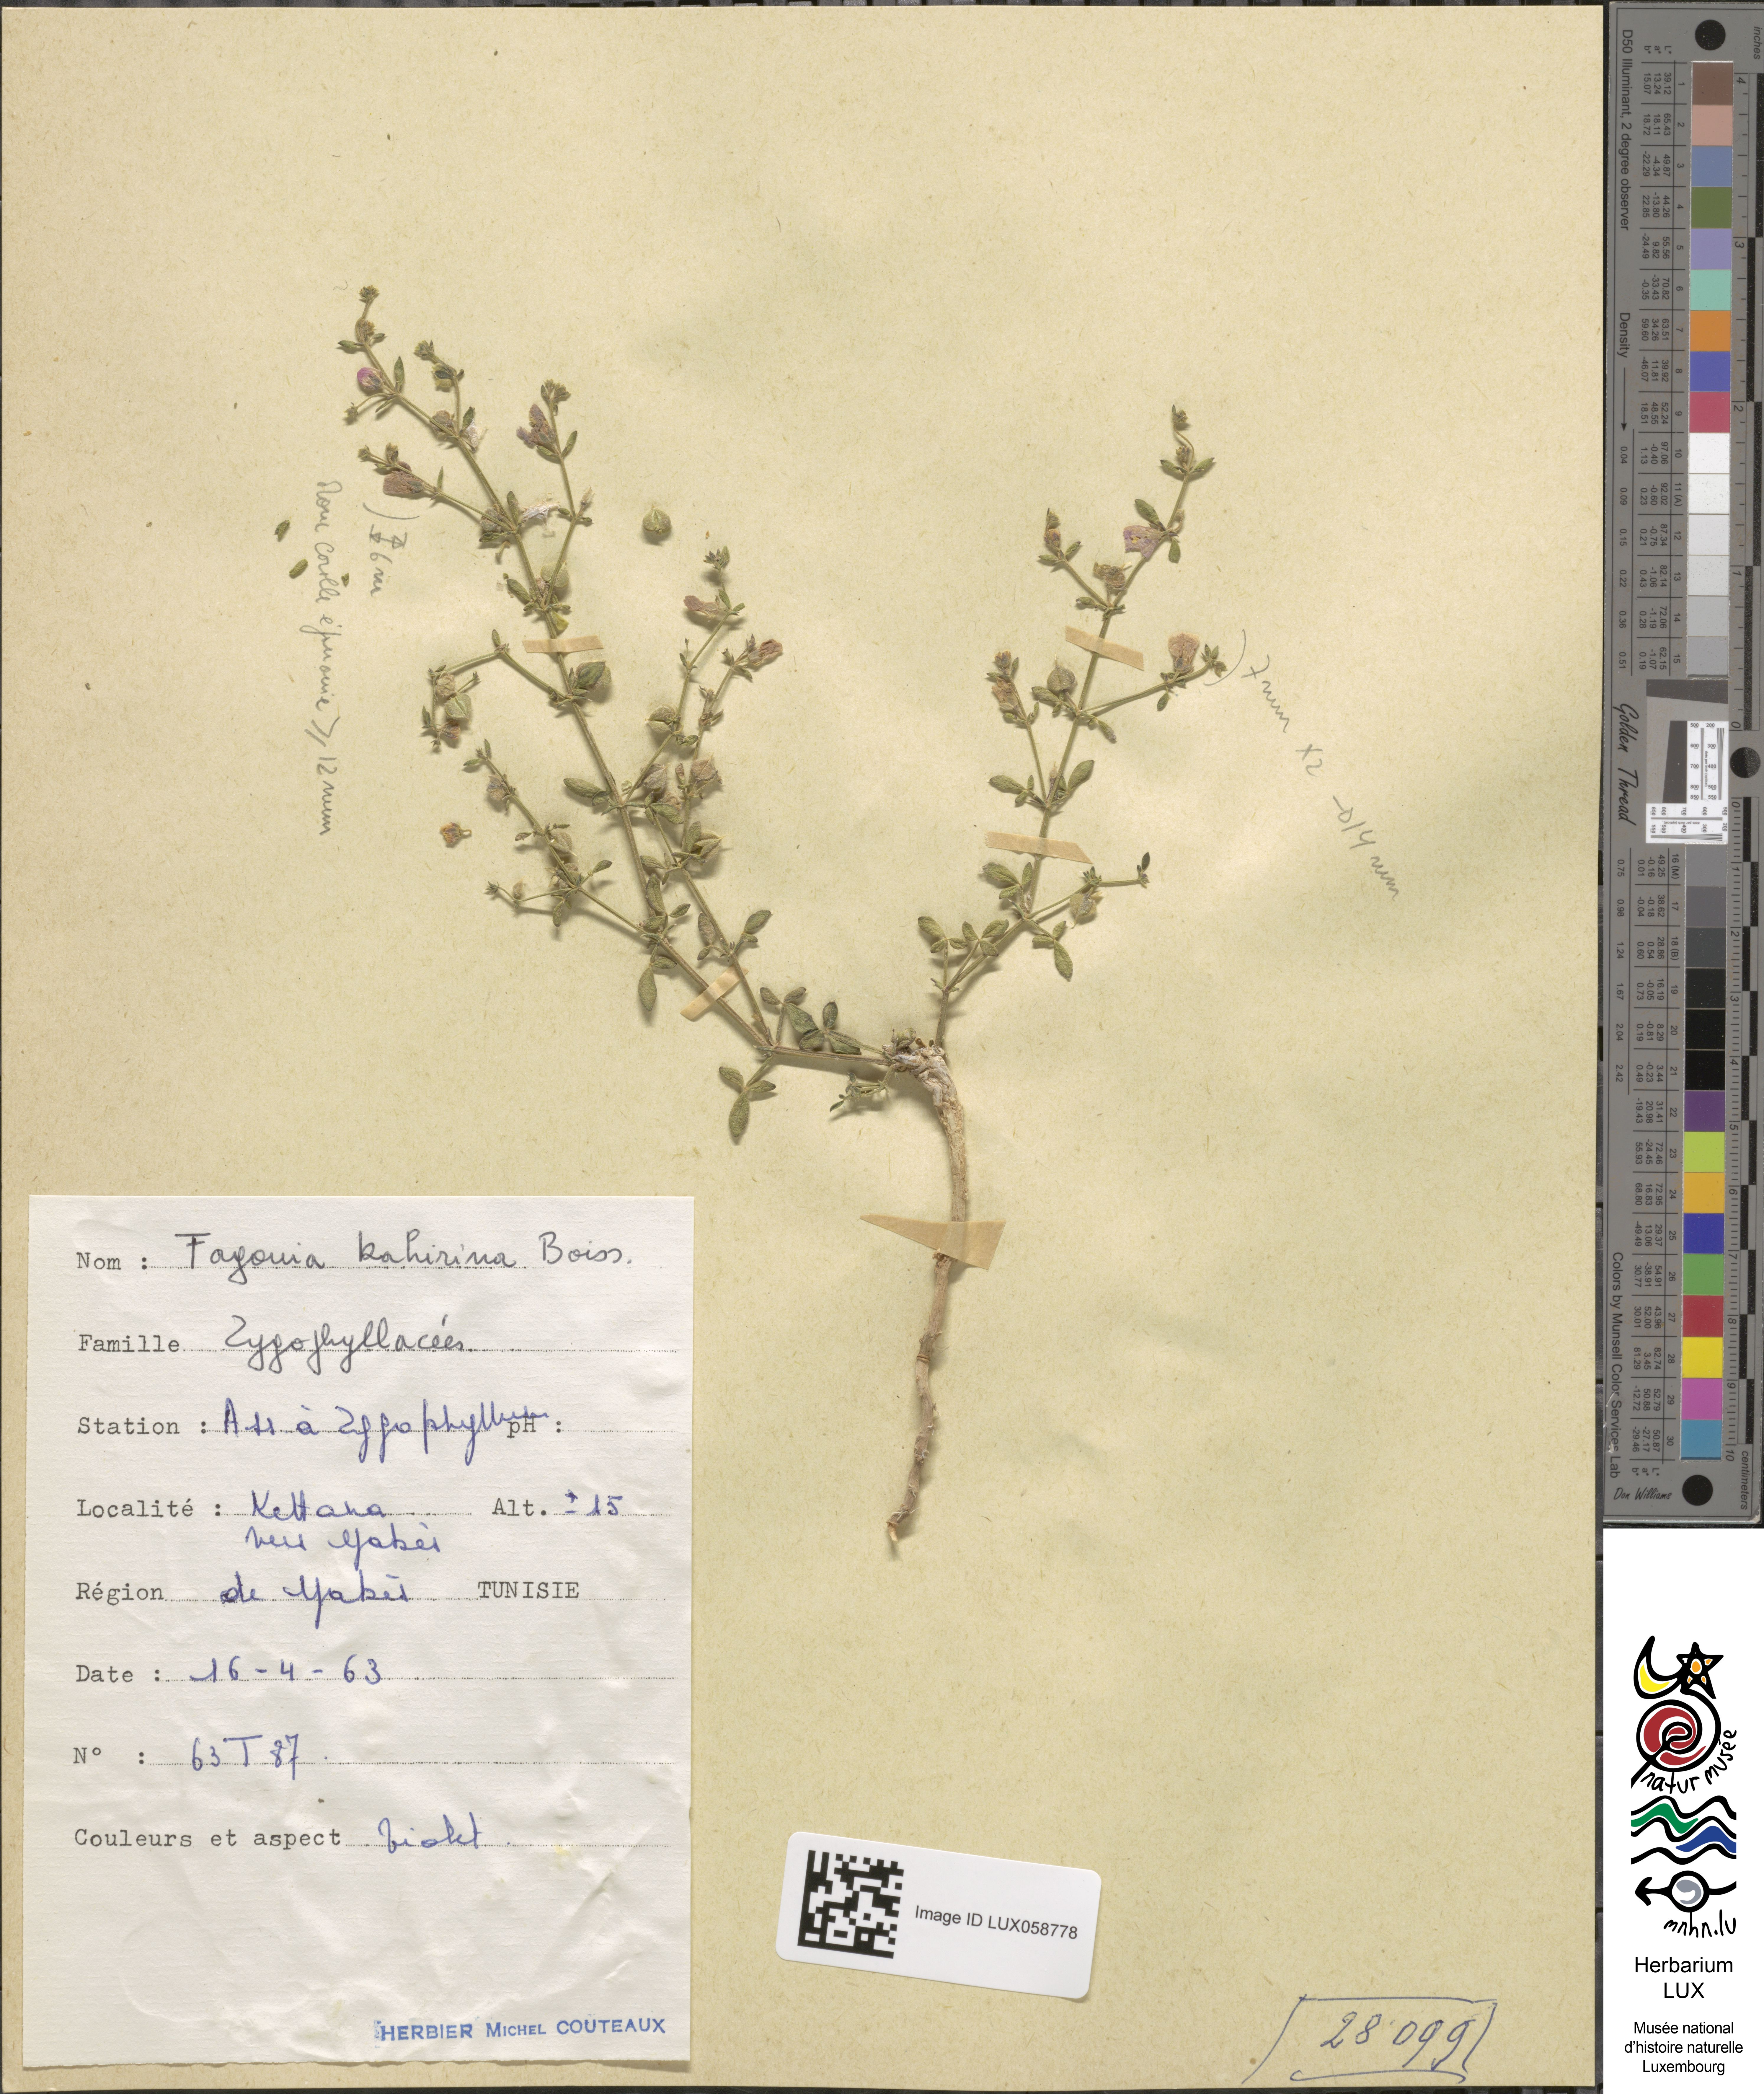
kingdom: Plantae
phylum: Tracheophyta
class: Magnoliopsida
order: Zygophyllales
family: Zygophyllaceae
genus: Fagonia
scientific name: Fagonia scabra
